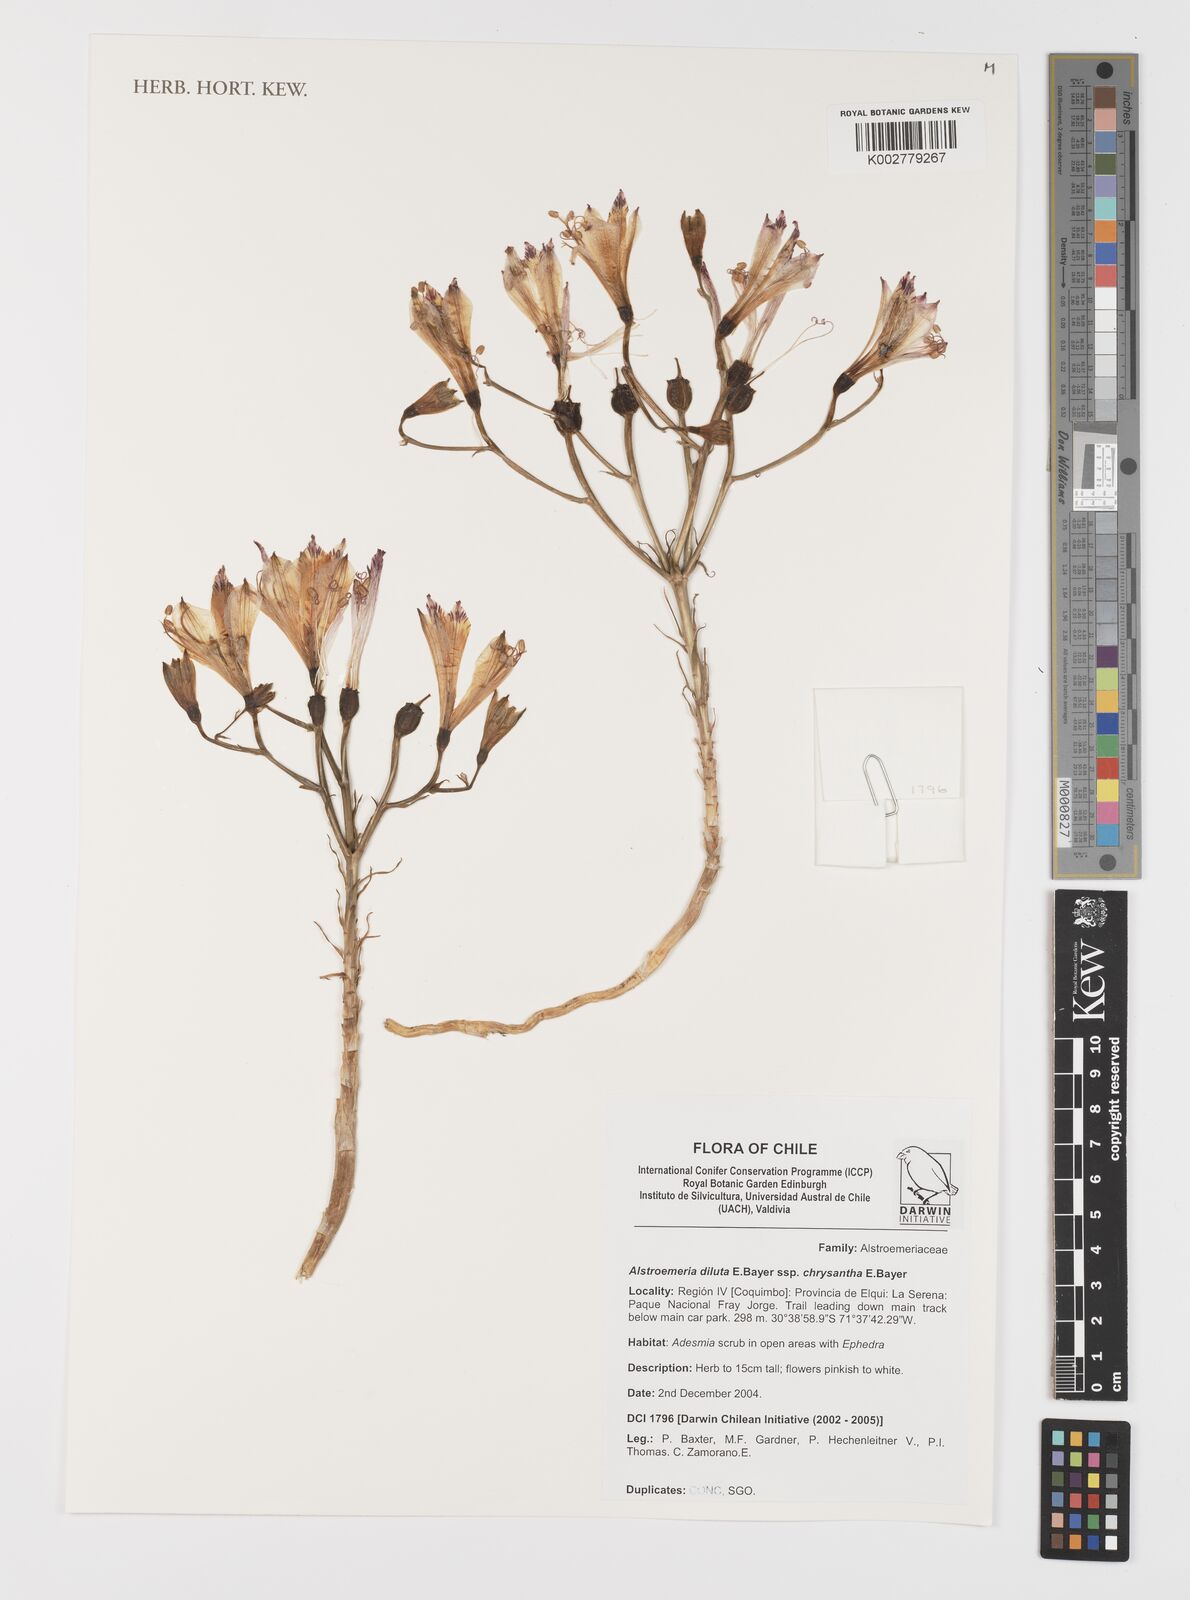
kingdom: Plantae
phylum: Tracheophyta
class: Liliopsida
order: Liliales
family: Alstroemeriaceae
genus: Alstroemeria
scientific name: Alstroemeria diluta
